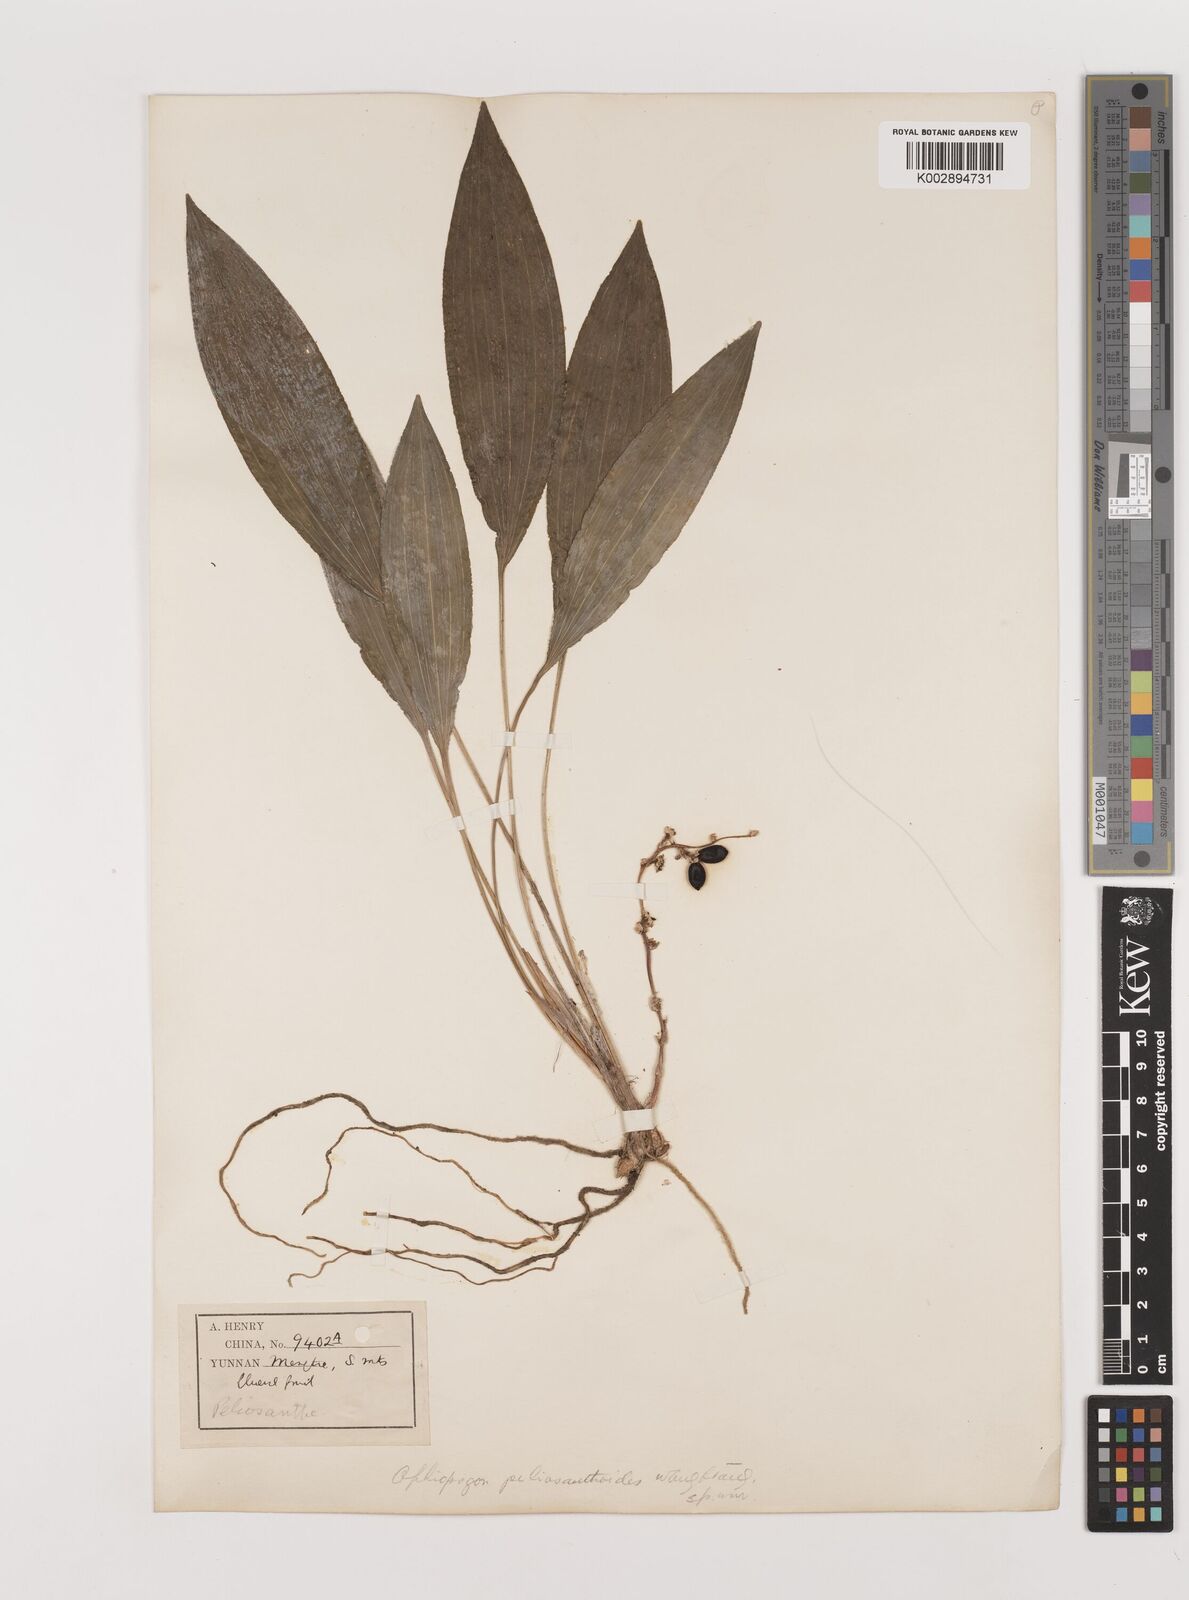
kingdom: Plantae
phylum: Tracheophyta
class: Liliopsida
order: Asparagales
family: Asparagaceae
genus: Ophiopogon
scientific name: Ophiopogon peliosanthoides
